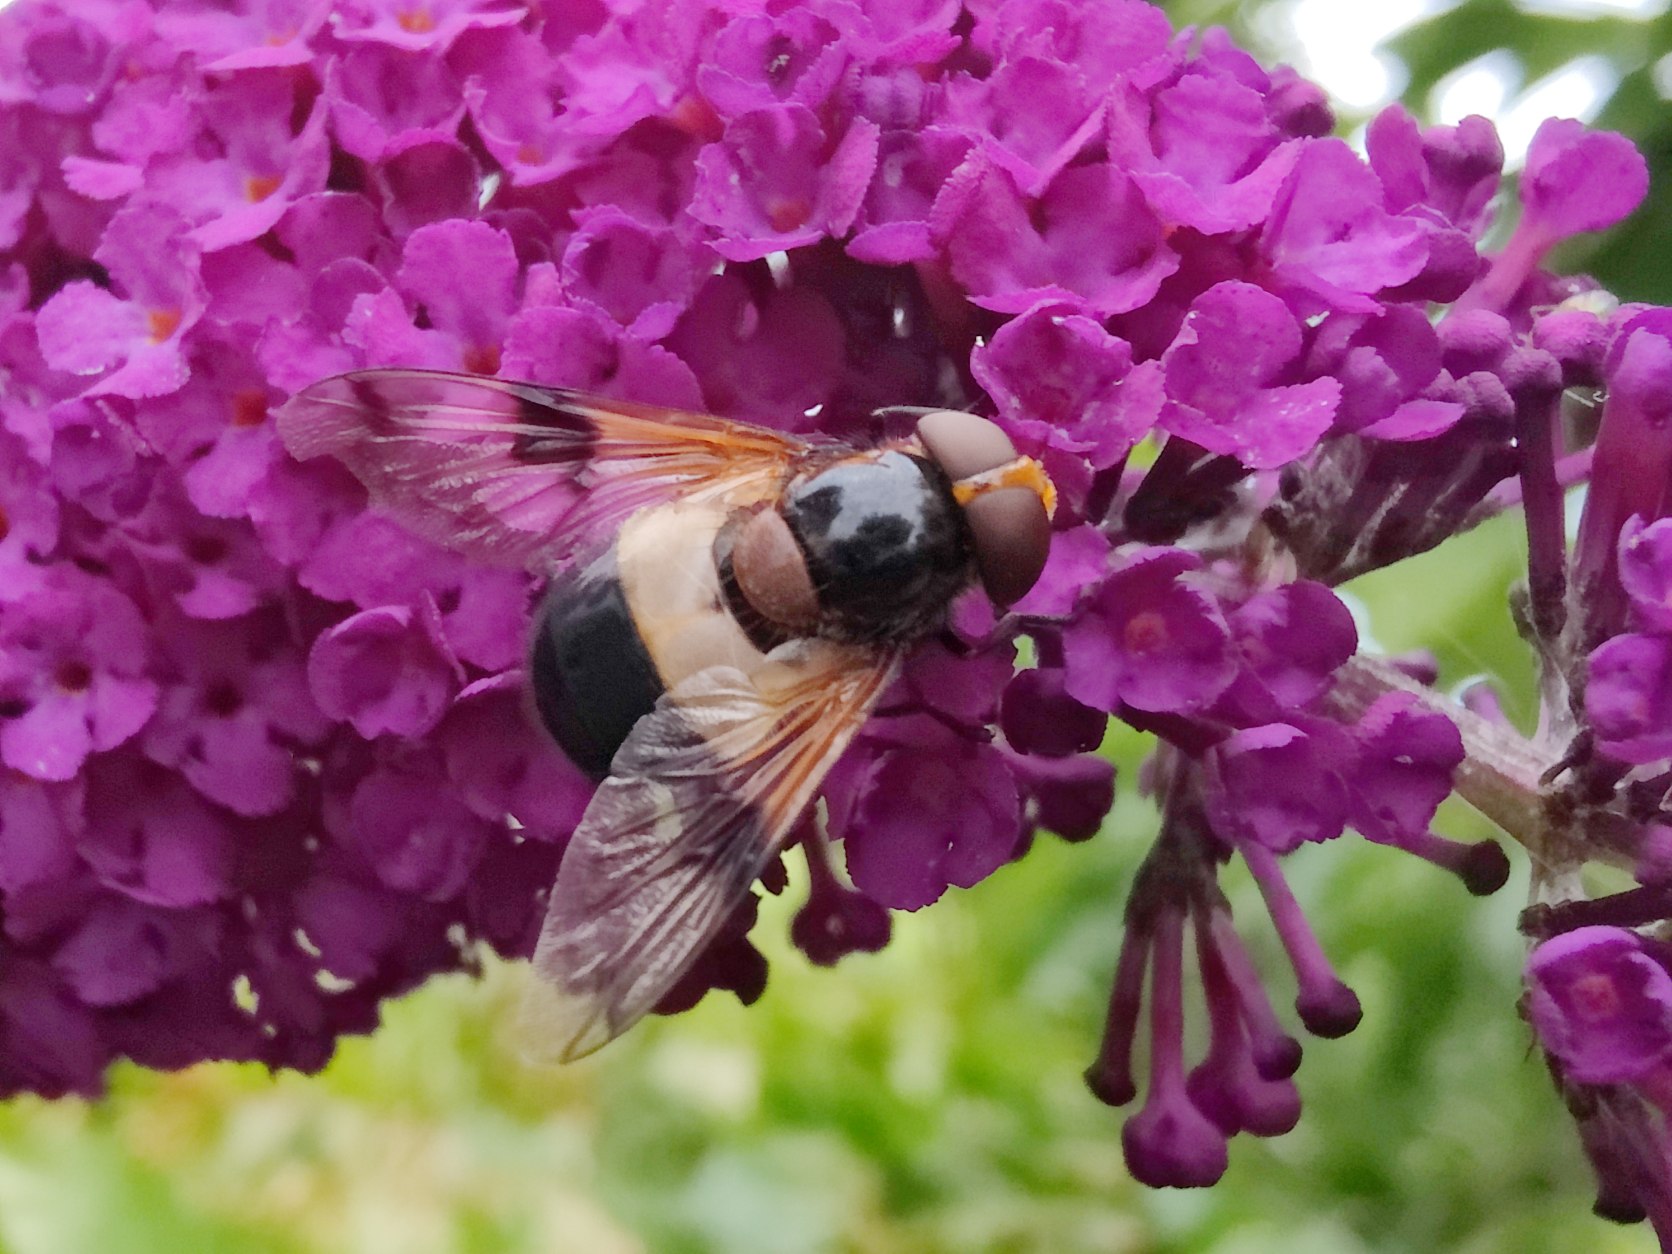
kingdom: Animalia
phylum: Arthropoda
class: Insecta
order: Diptera
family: Syrphidae
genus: Volucella
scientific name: Volucella pellucens
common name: Hvidbåndet humlesvirreflue
